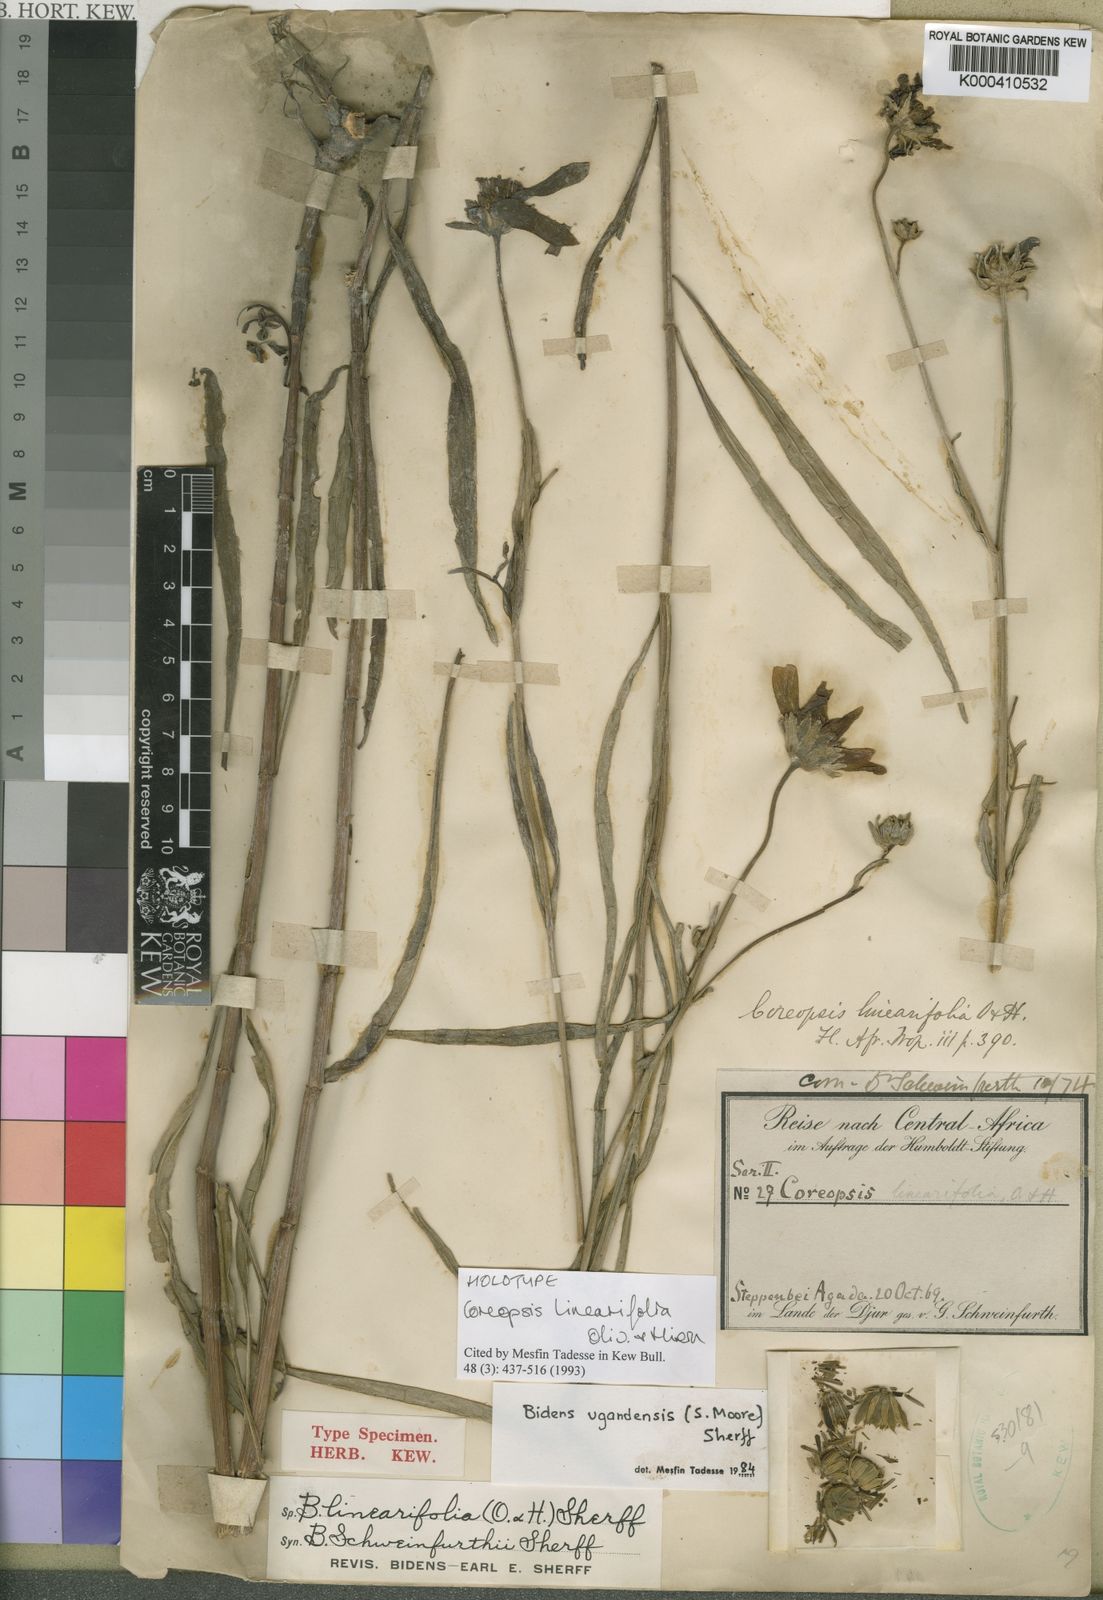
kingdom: Plantae
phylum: Tracheophyta
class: Magnoliopsida
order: Asterales
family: Asteraceae
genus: Bidens
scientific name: Bidens ugandensis
